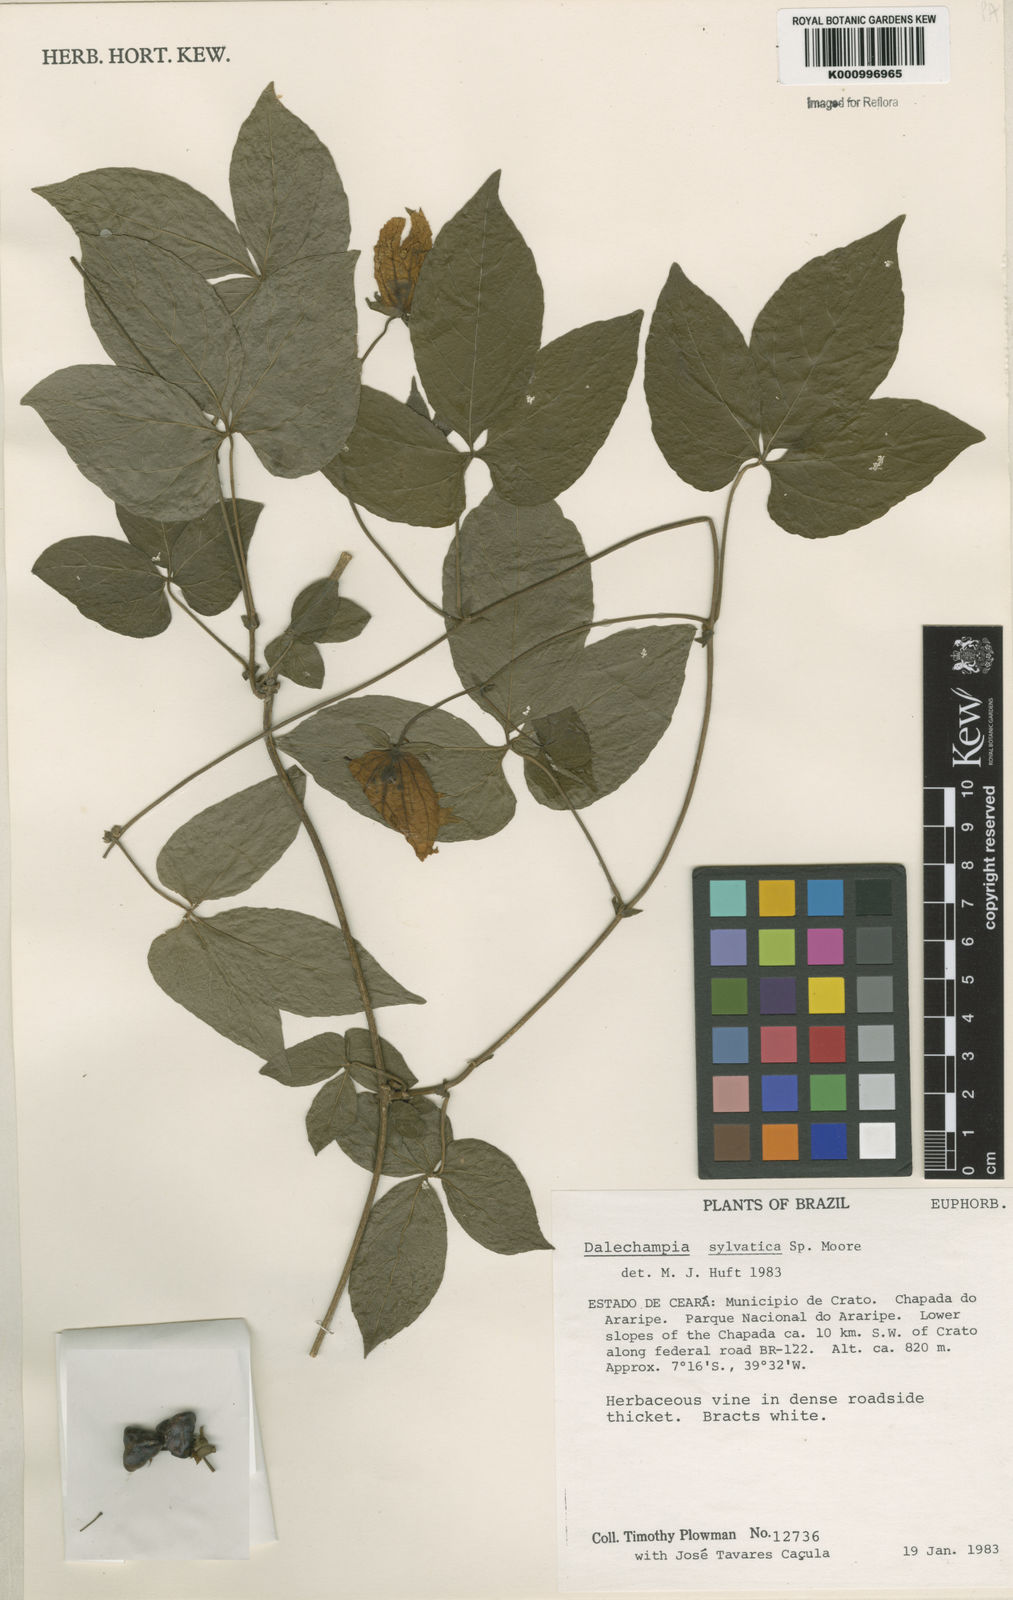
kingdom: Plantae
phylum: Tracheophyta
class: Magnoliopsida
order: Malpighiales
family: Euphorbiaceae
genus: Dalechampia
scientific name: Dalechampia
